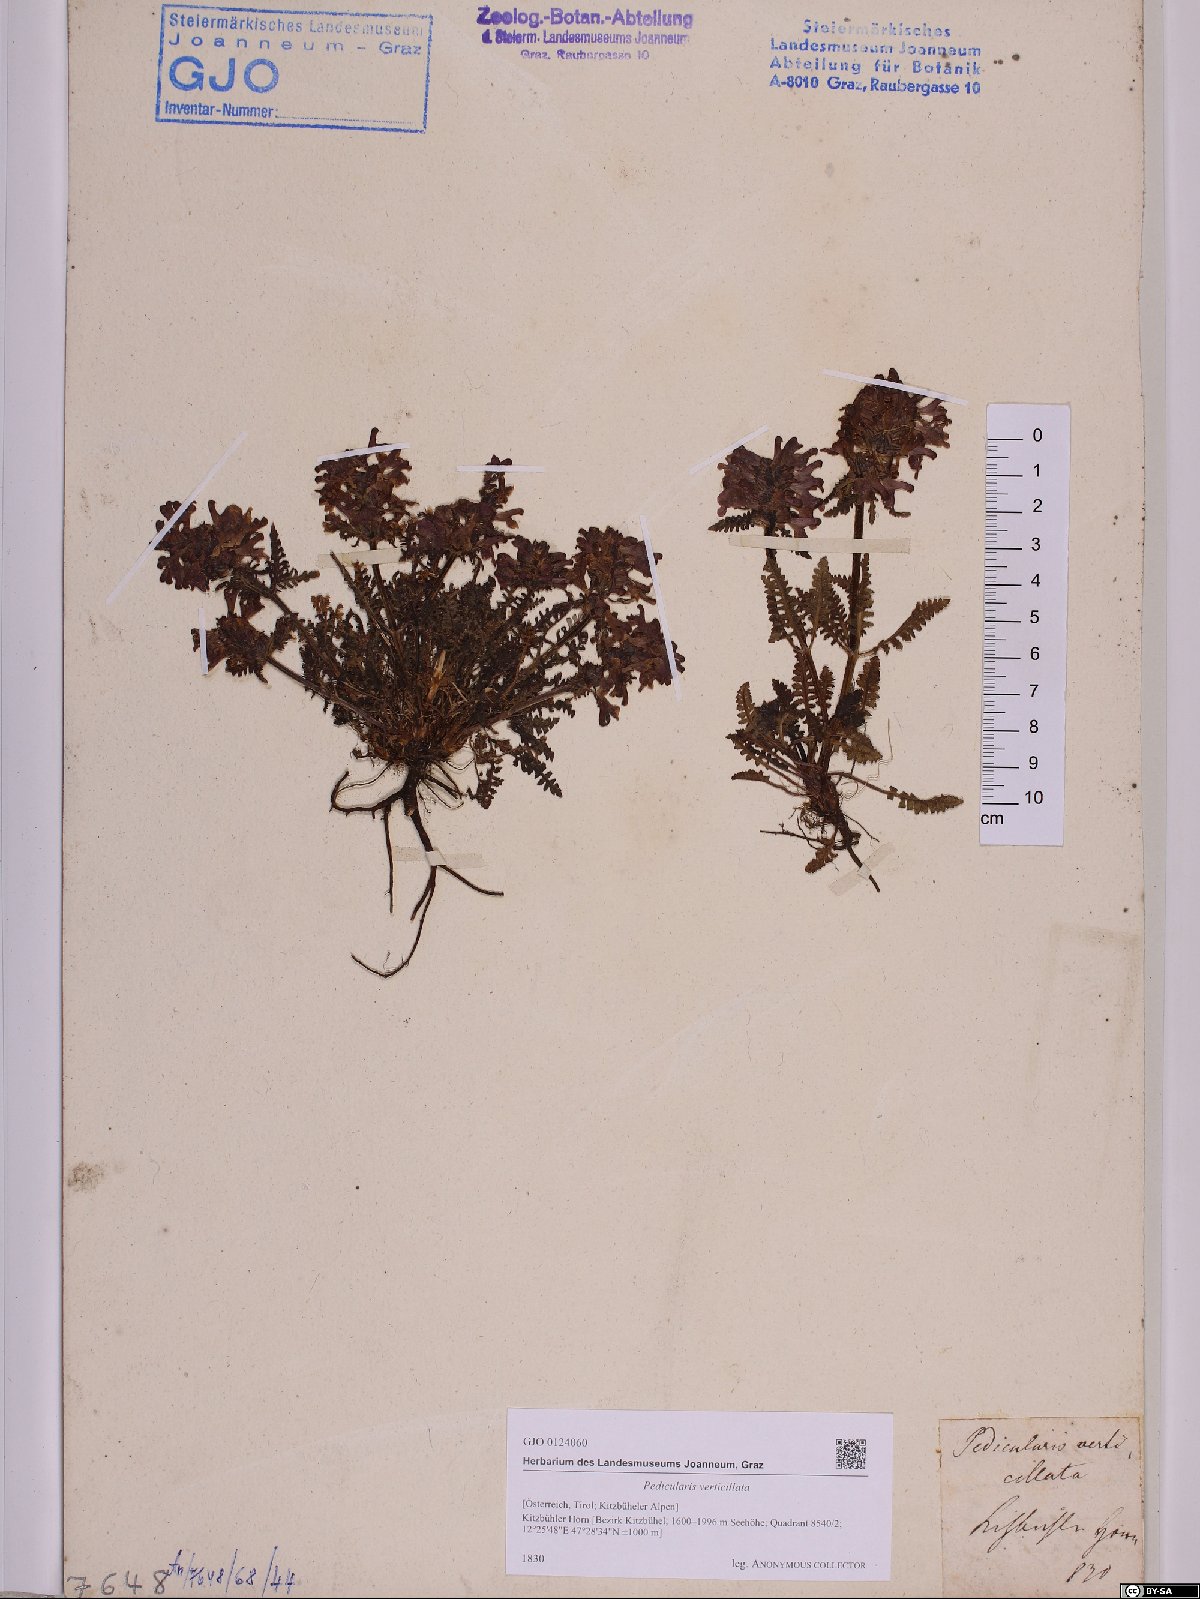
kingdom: Plantae
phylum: Tracheophyta
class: Magnoliopsida
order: Lamiales
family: Orobanchaceae
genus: Pedicularis
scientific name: Pedicularis verticillata
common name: Whorled lousewort
